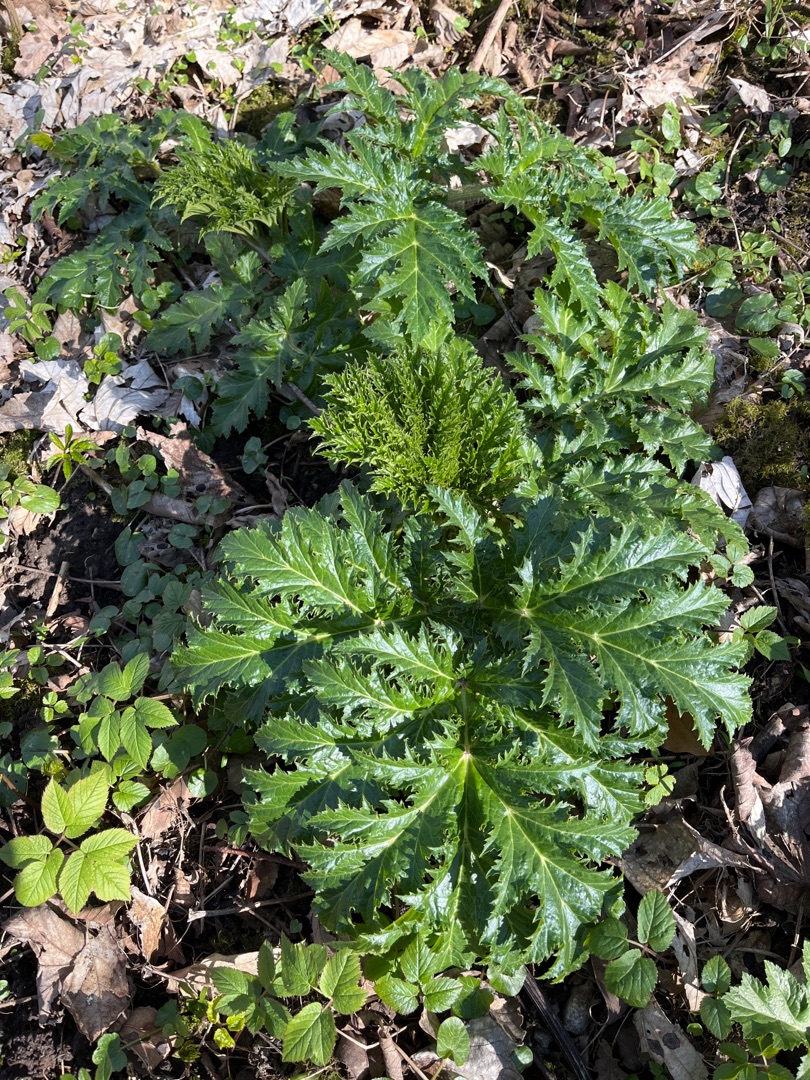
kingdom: Plantae
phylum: Tracheophyta
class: Magnoliopsida
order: Apiales
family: Apiaceae
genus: Heracleum
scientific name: Heracleum mantegazzianum
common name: Kæmpe-bjørneklo
